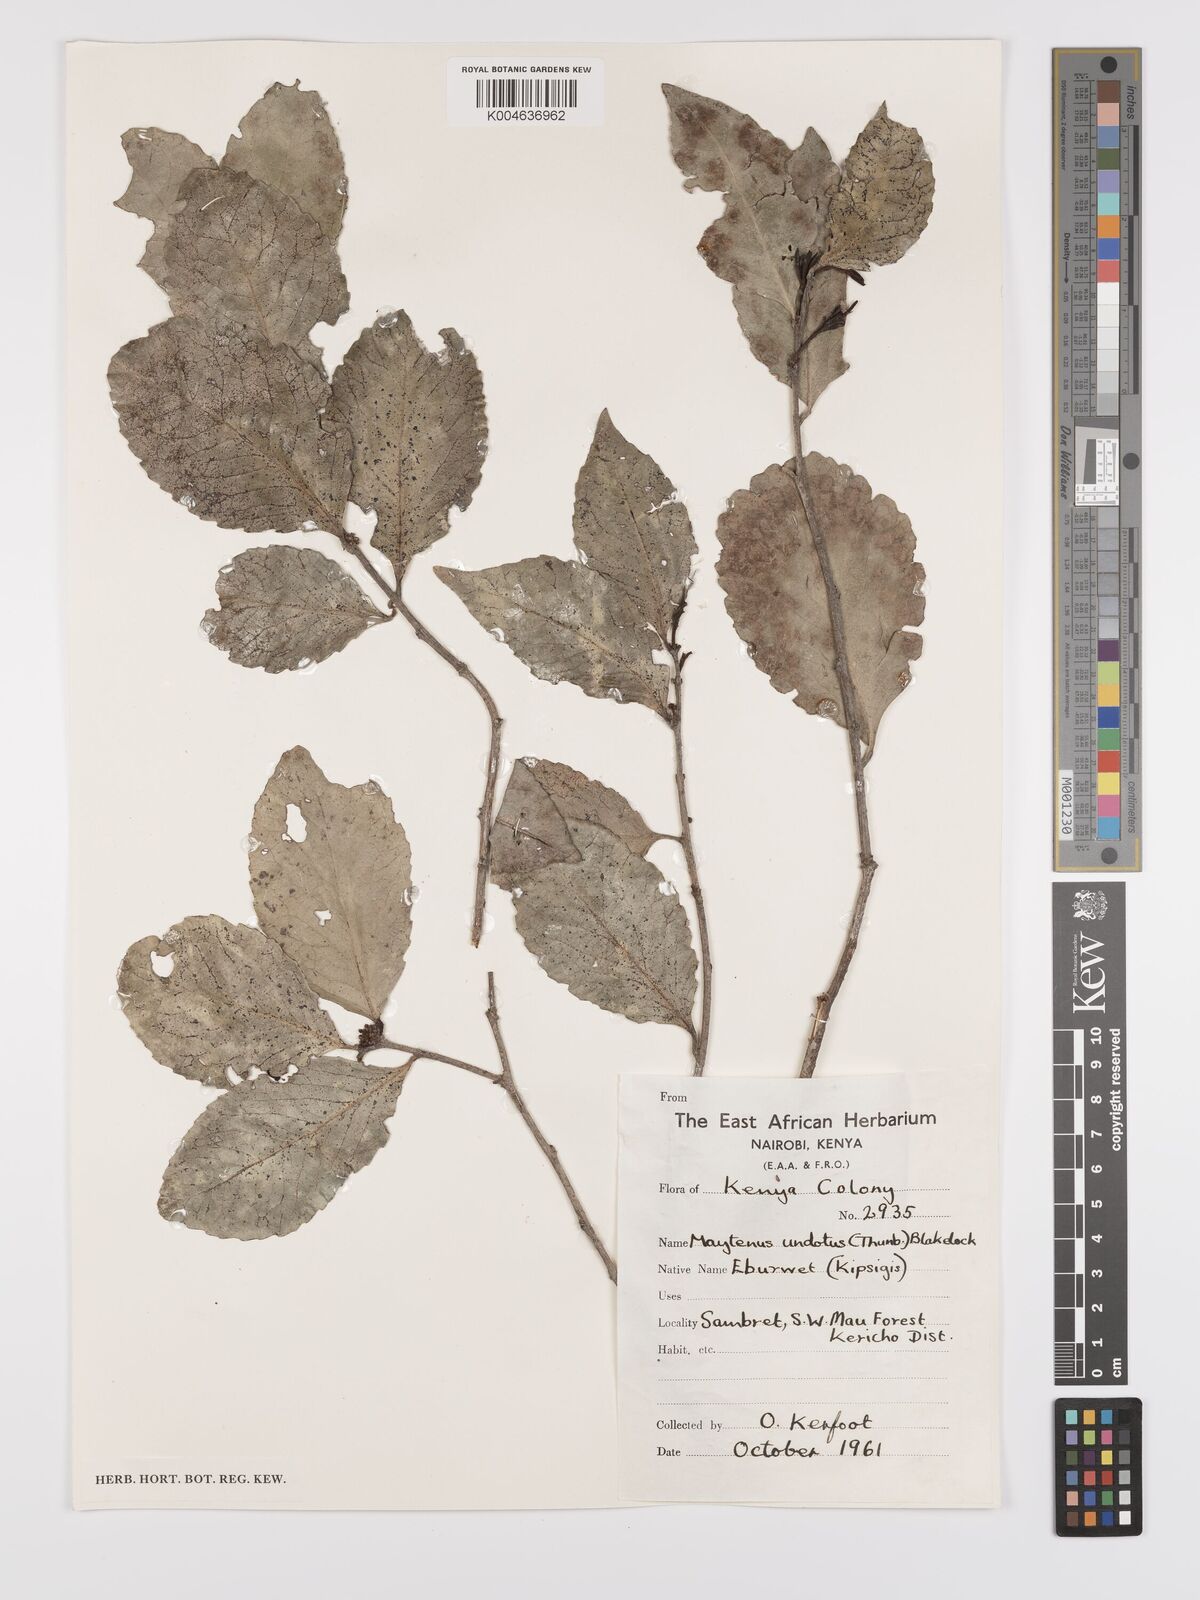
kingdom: Plantae
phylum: Tracheophyta
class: Magnoliopsida
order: Celastrales
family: Celastraceae
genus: Gymnosporia
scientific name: Gymnosporia undata
